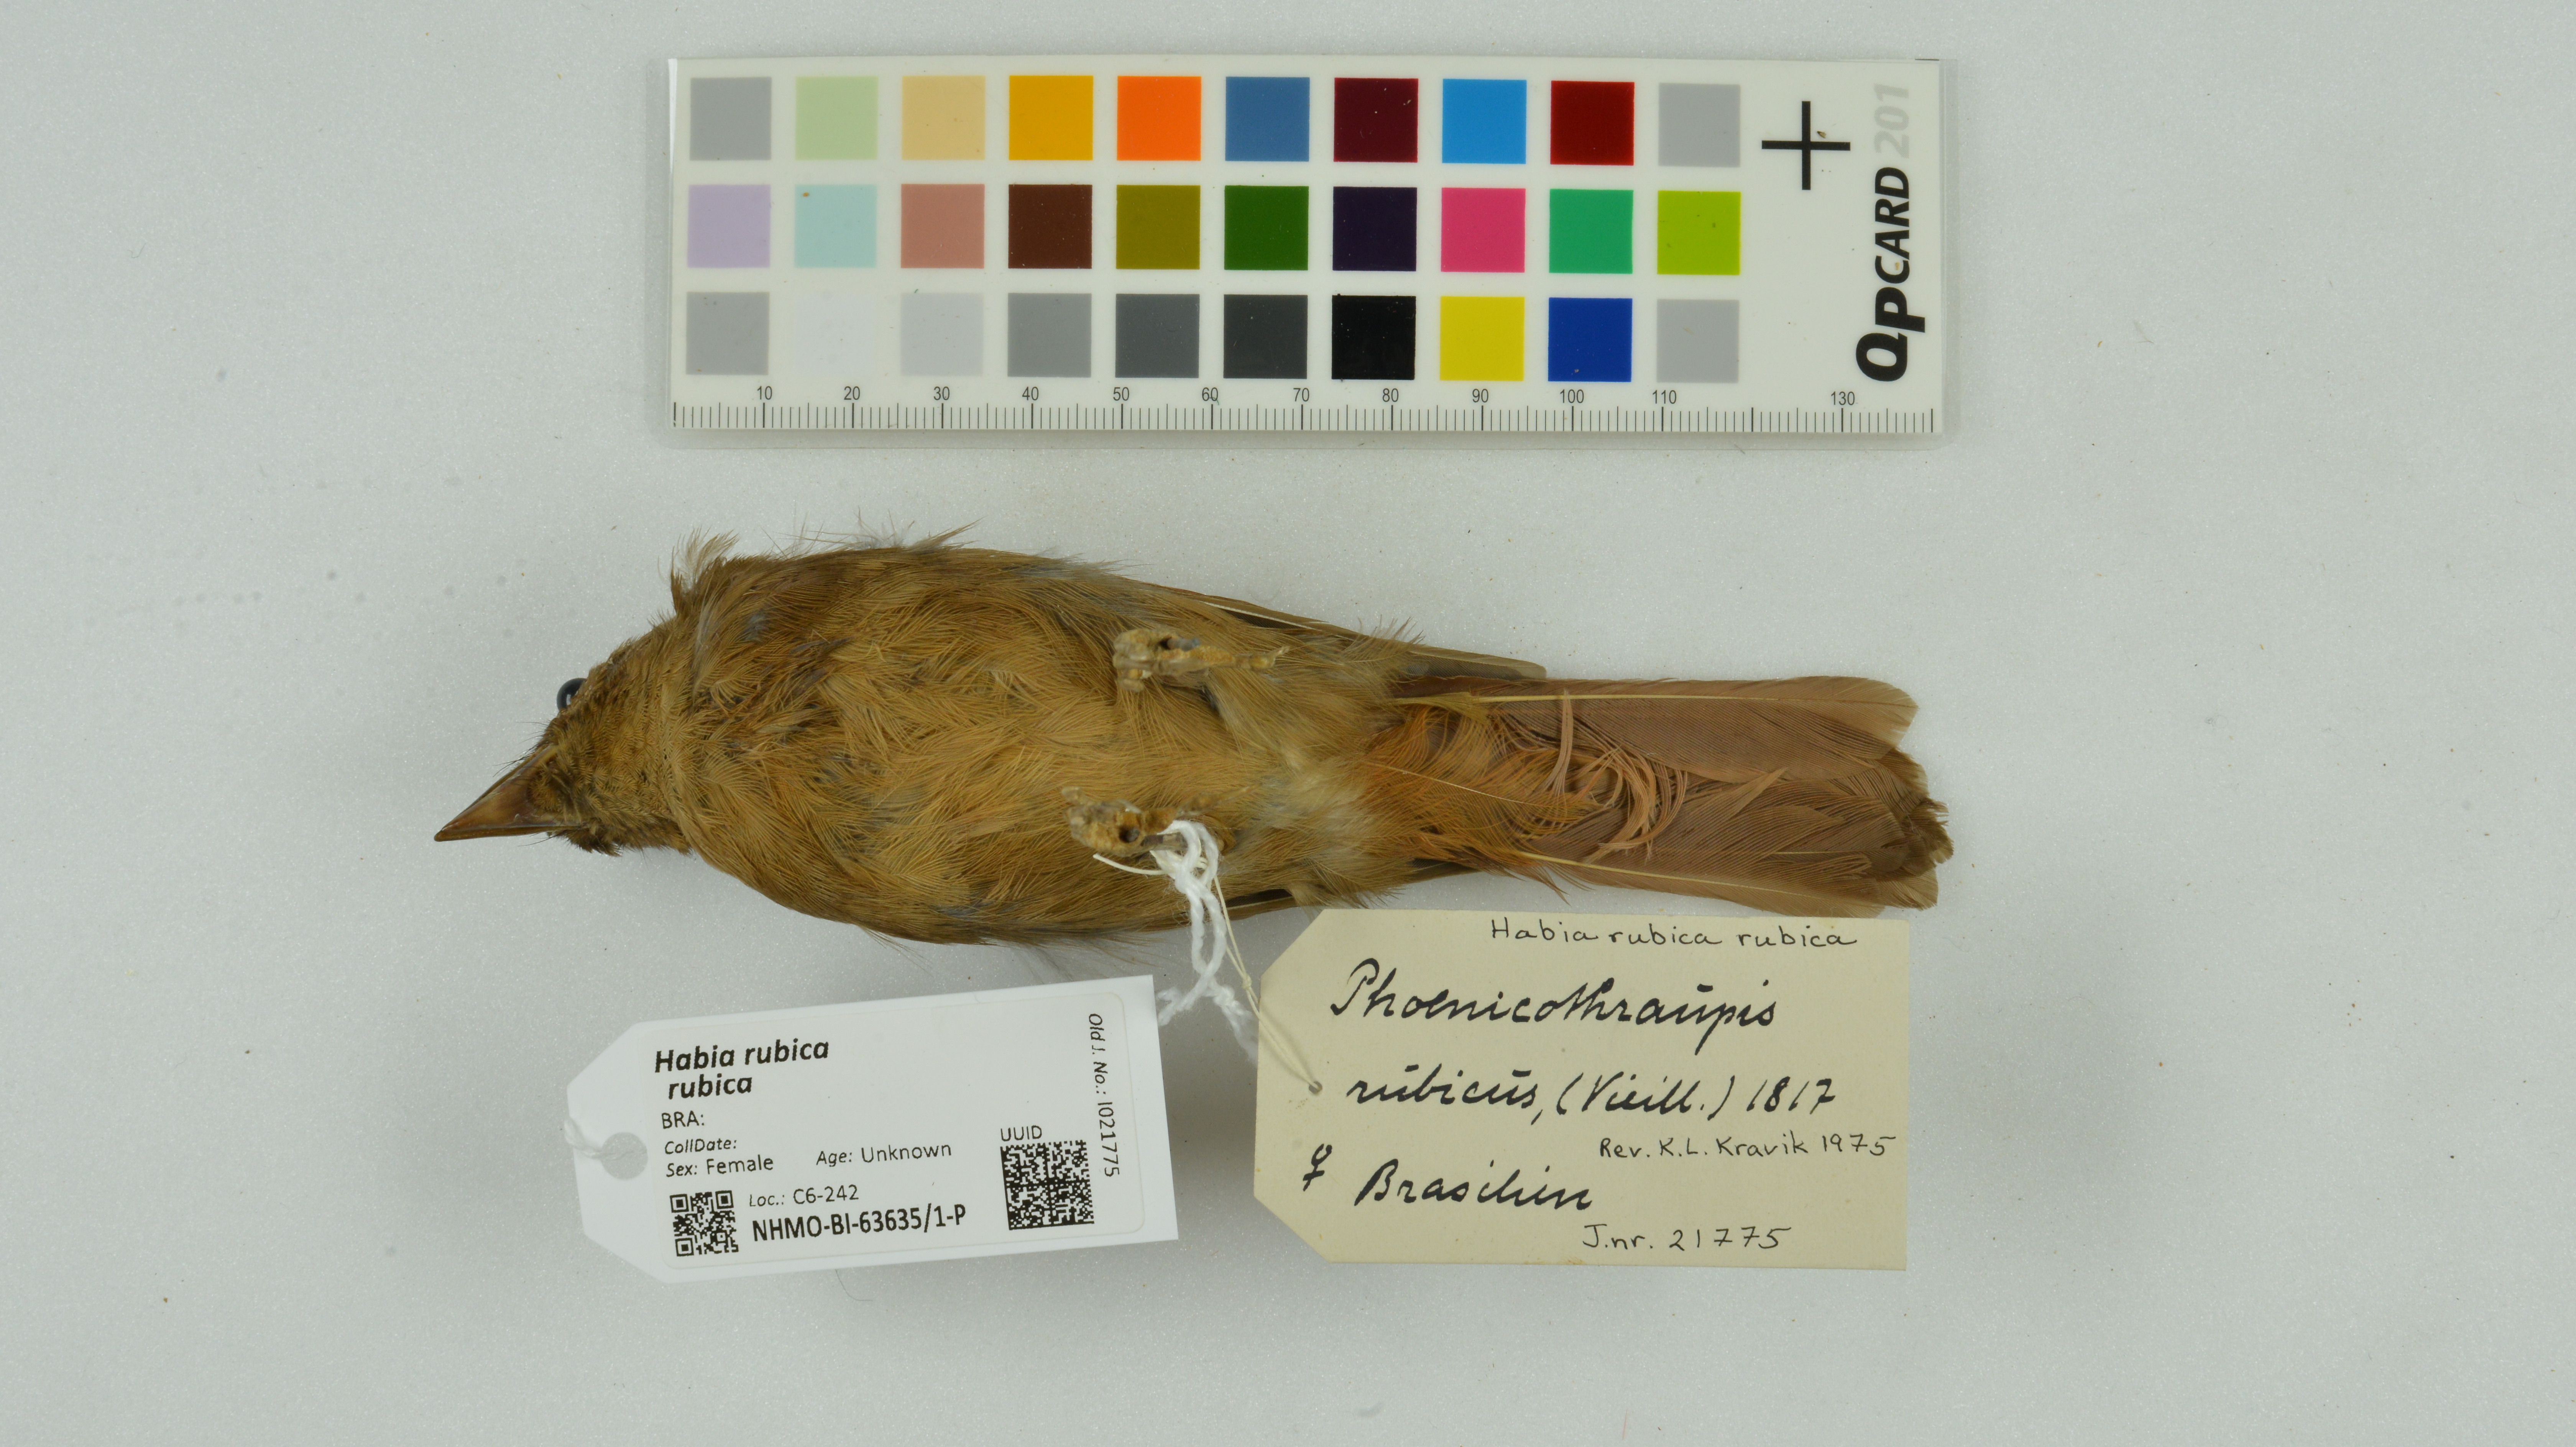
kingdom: Animalia
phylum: Chordata
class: Aves
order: Passeriformes
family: Cardinalidae
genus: Habia
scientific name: Habia rubica
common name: Red-crowned ant-tanager
